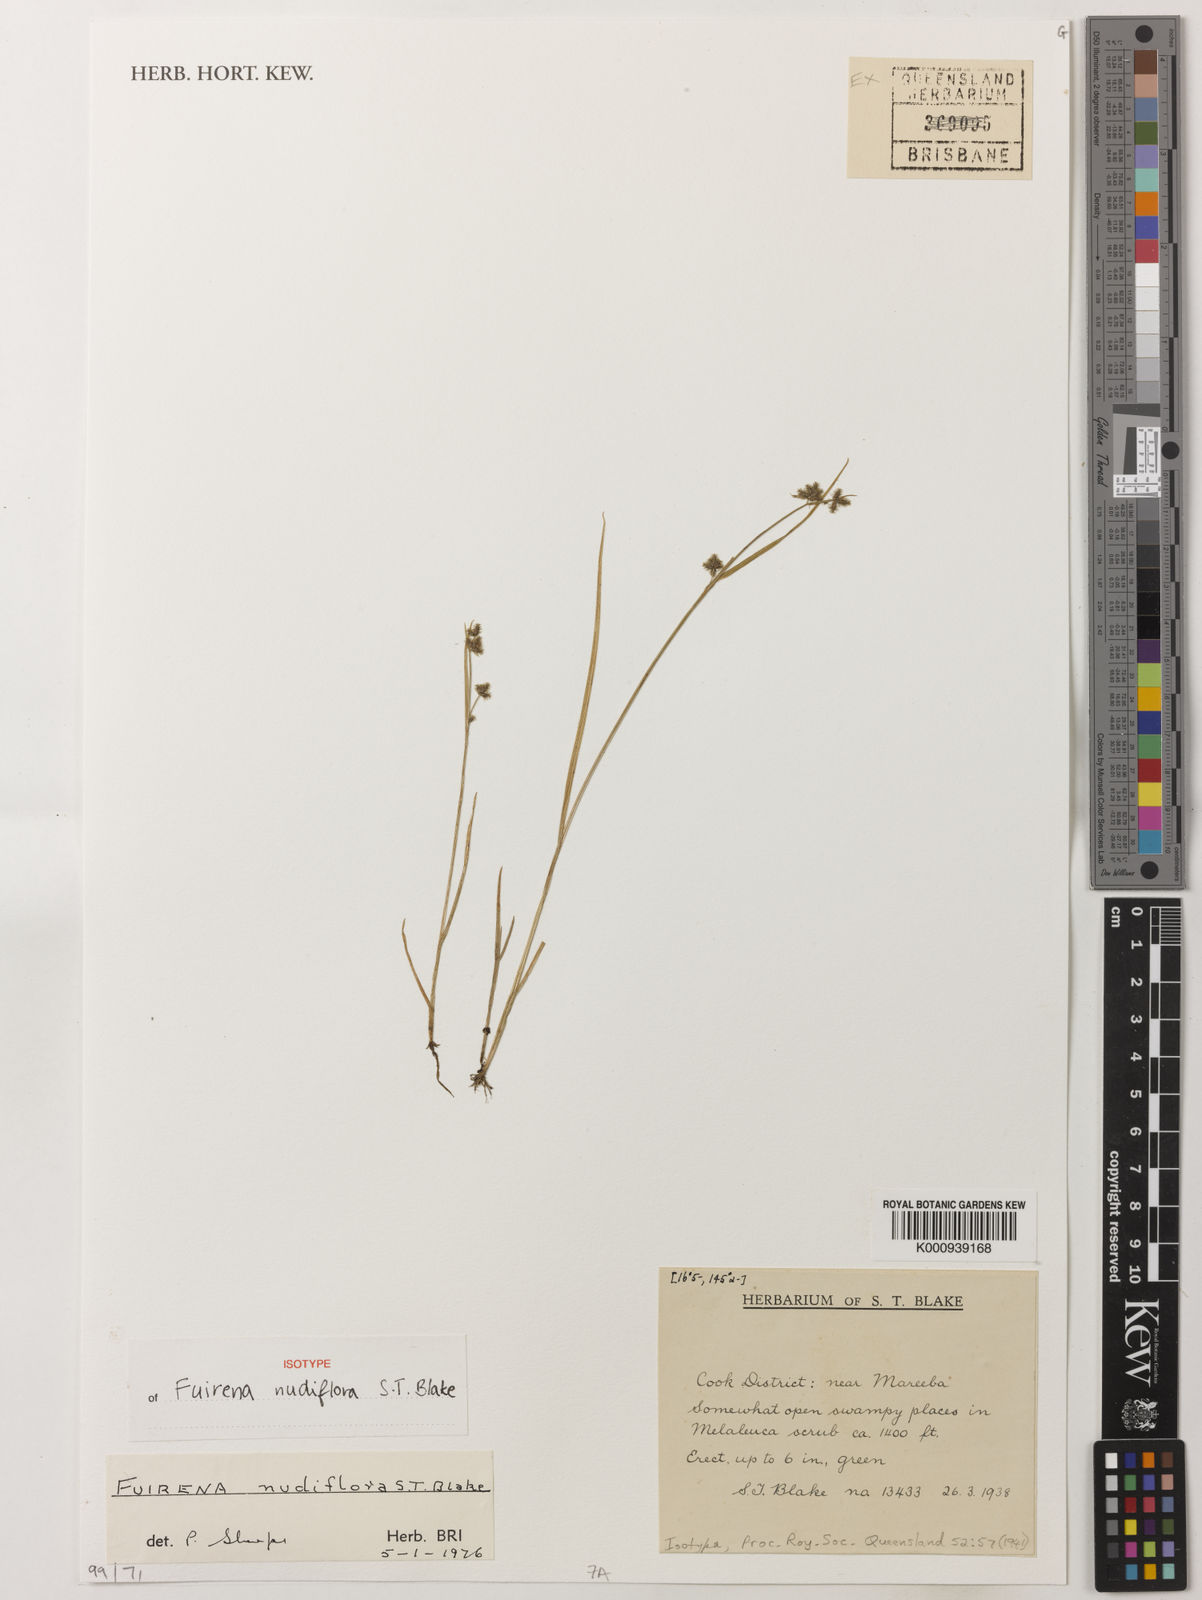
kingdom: Plantae
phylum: Tracheophyta
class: Liliopsida
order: Poales
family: Cyperaceae
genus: Fuirena
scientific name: Fuirena nudiflora
